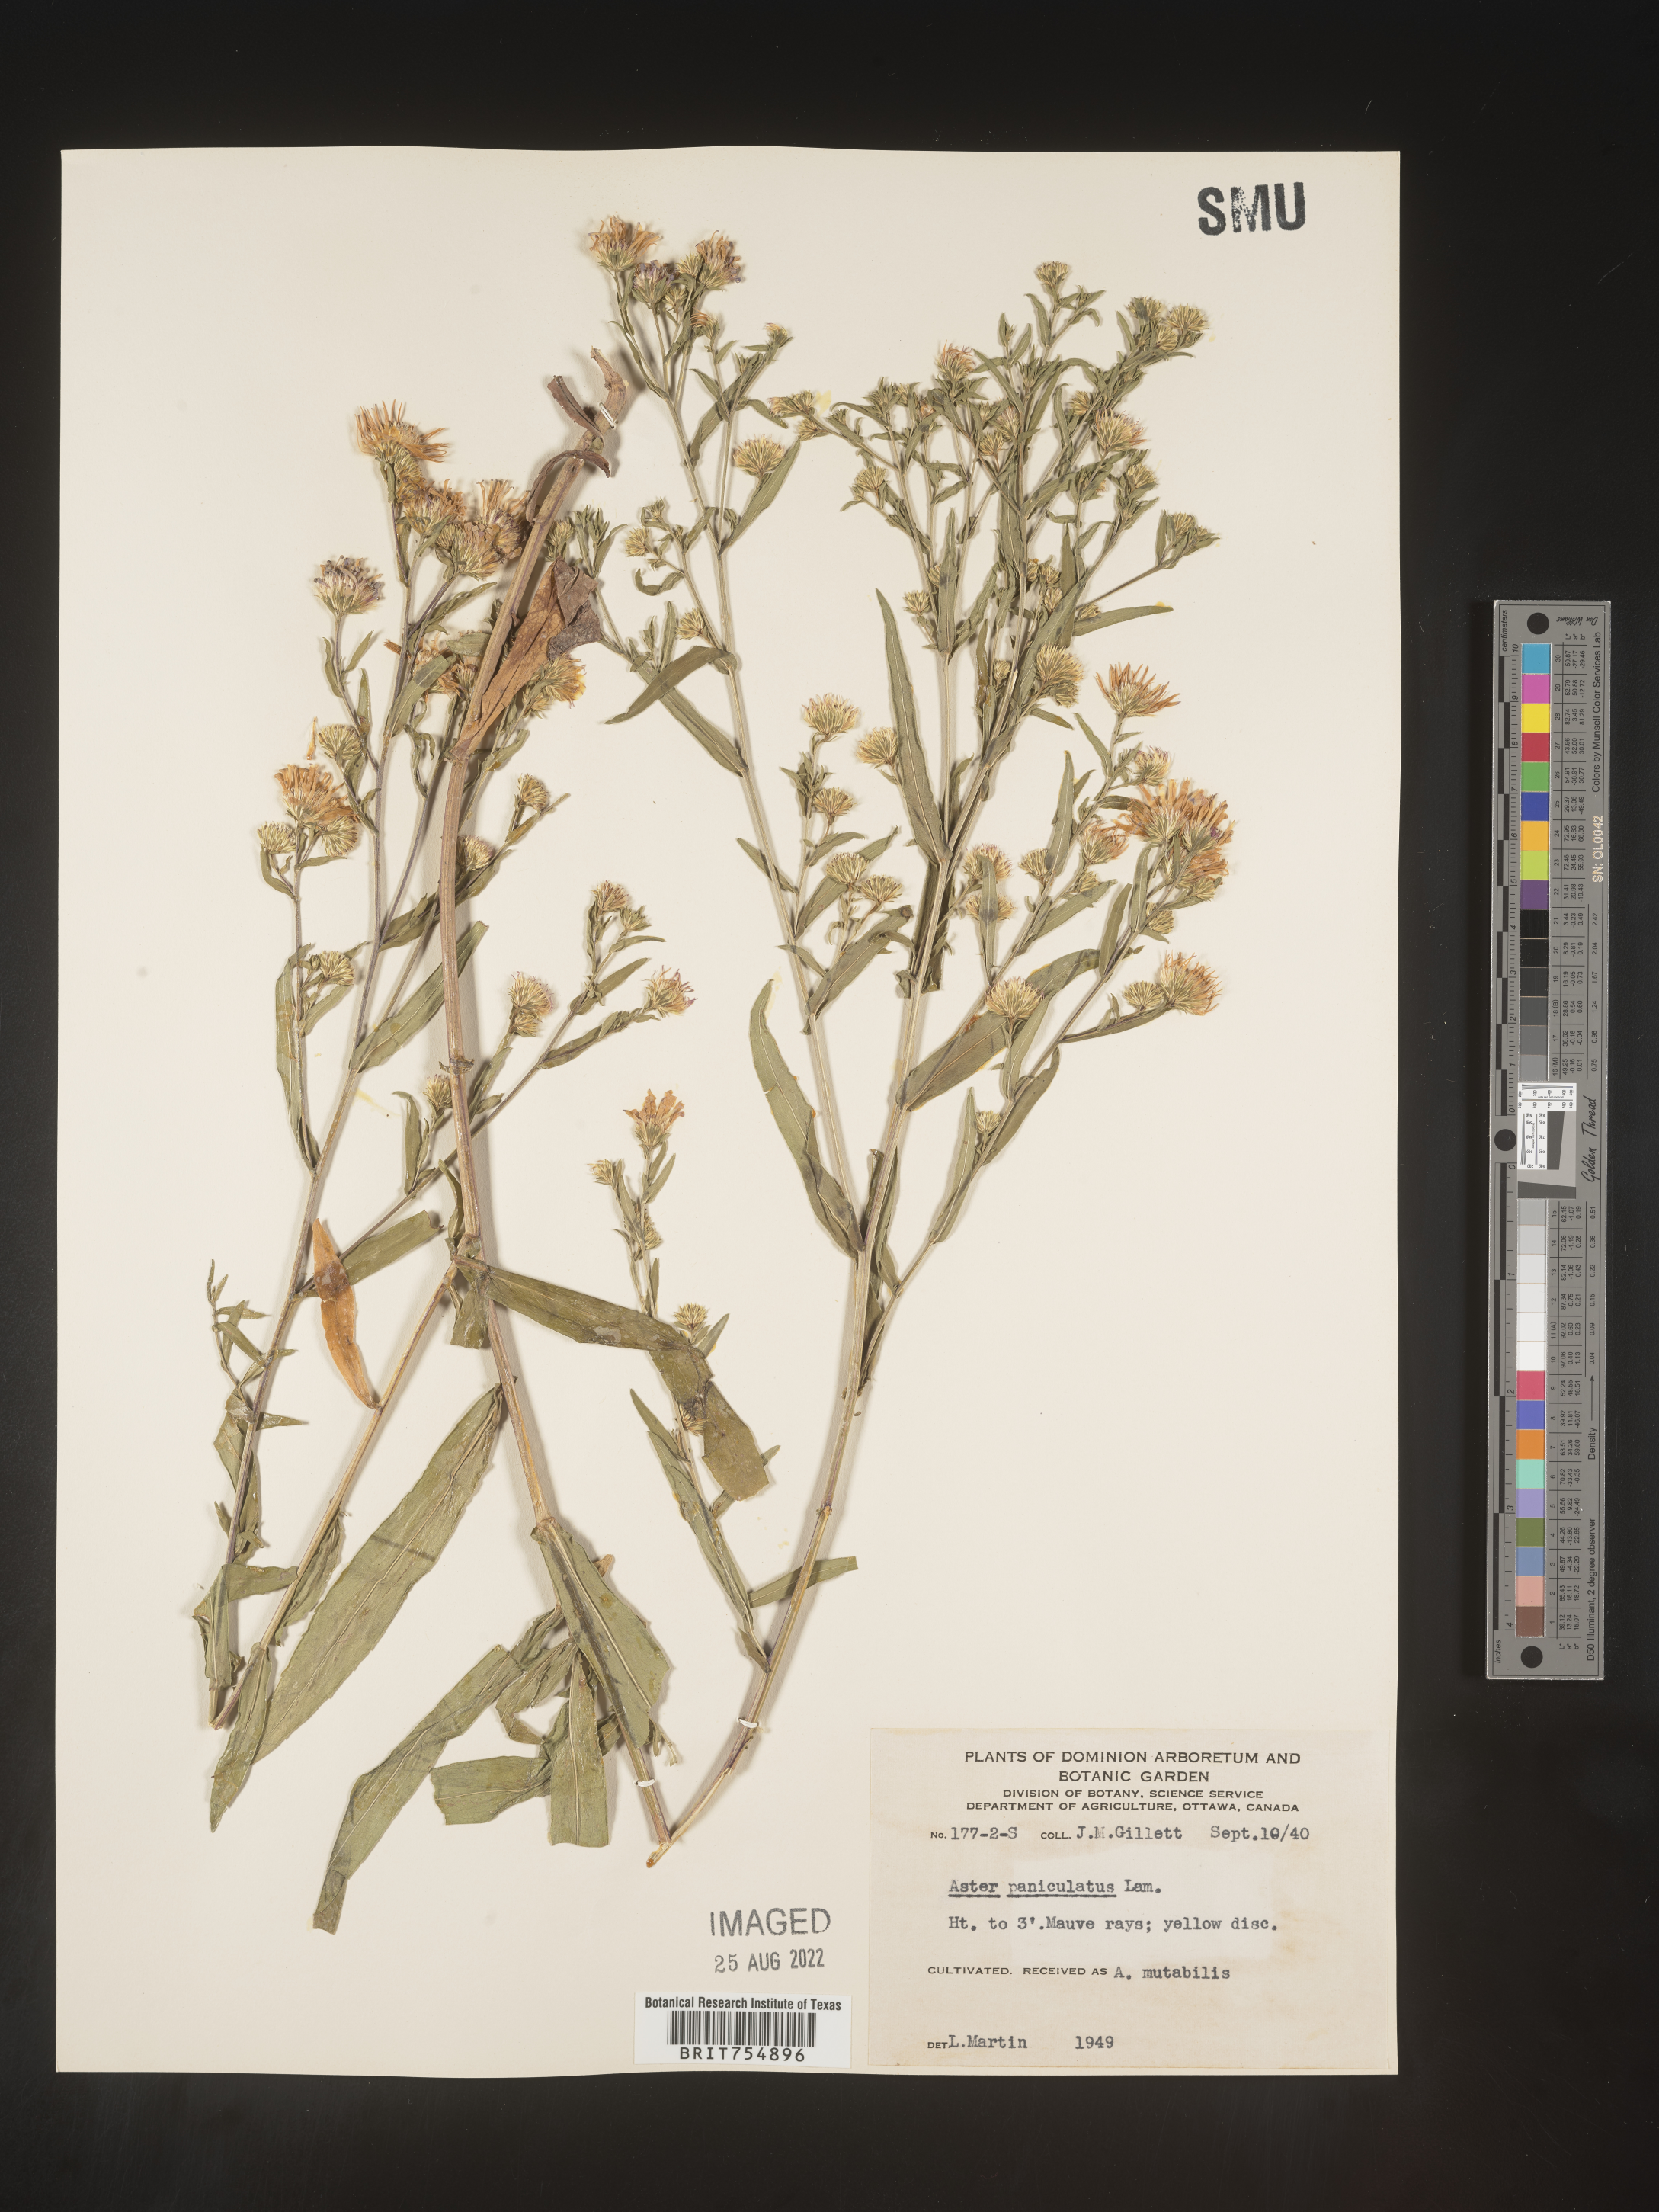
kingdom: Plantae
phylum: Tracheophyta
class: Magnoliopsida
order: Asterales
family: Asteraceae
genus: Symphyotrichum
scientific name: Symphyotrichum
